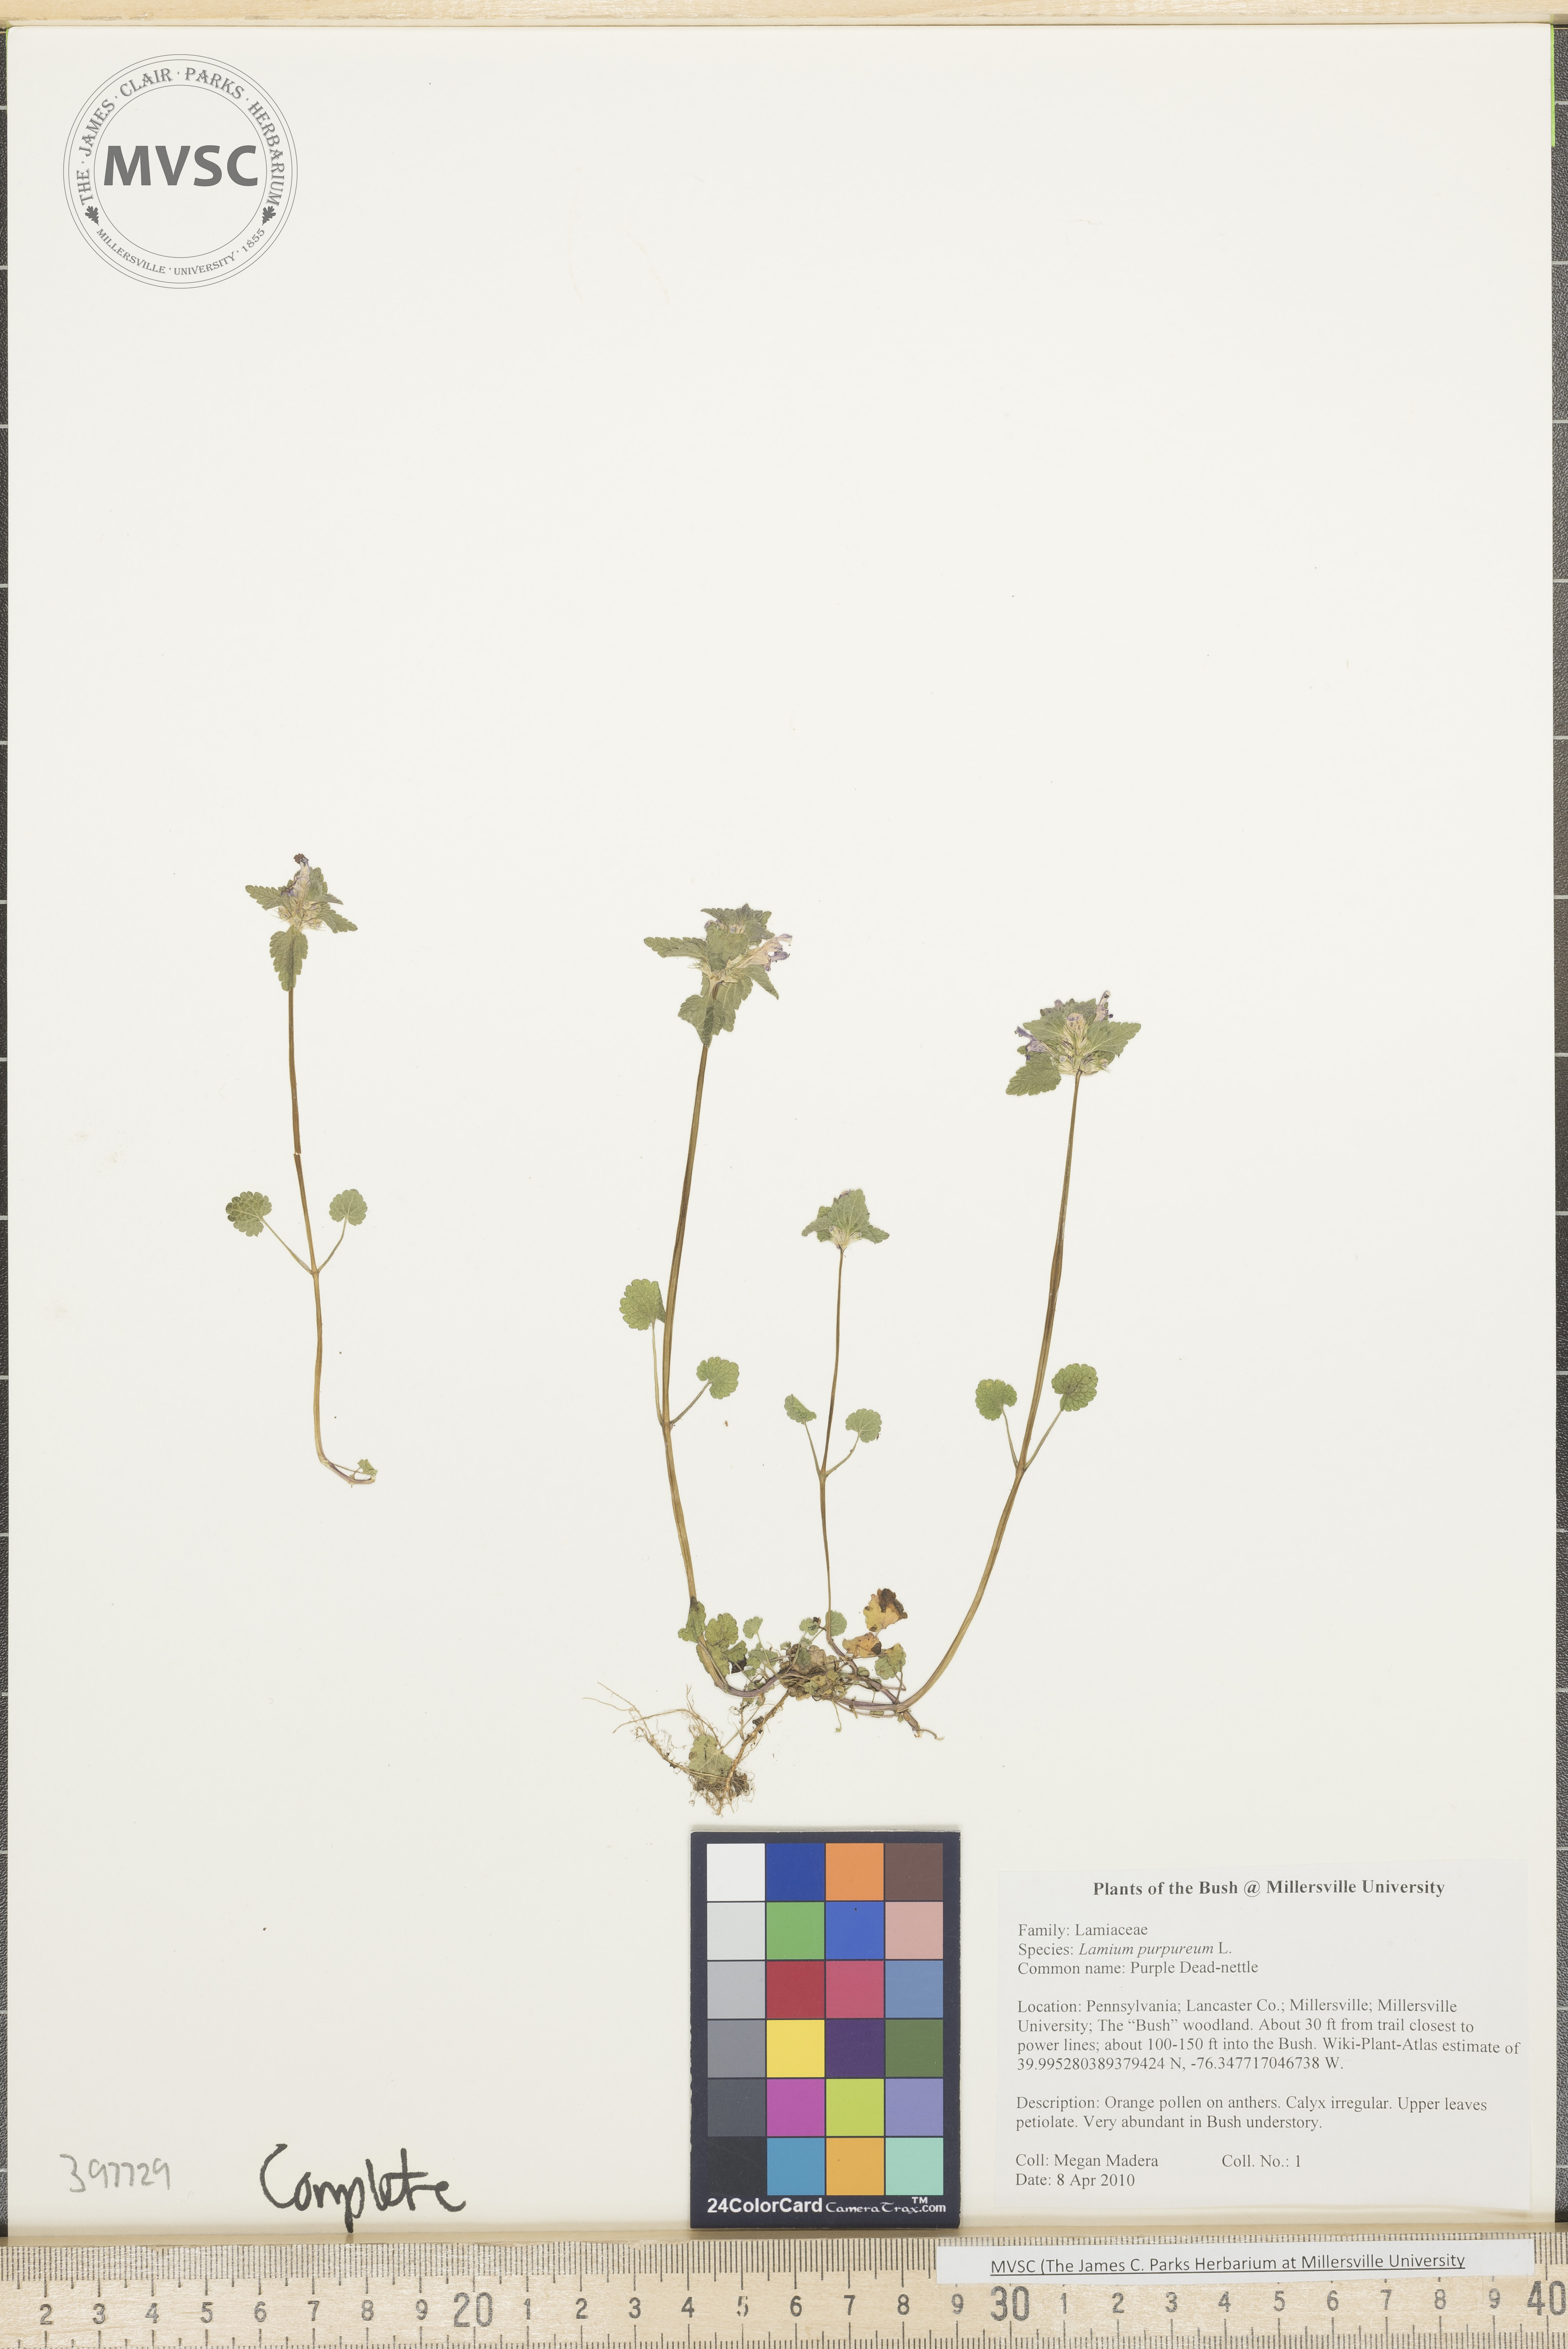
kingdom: Plantae
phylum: Tracheophyta
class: Magnoliopsida
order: Lamiales
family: Lamiaceae
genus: Lamium
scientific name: Lamium purpureum
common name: Purple dead-nettle
